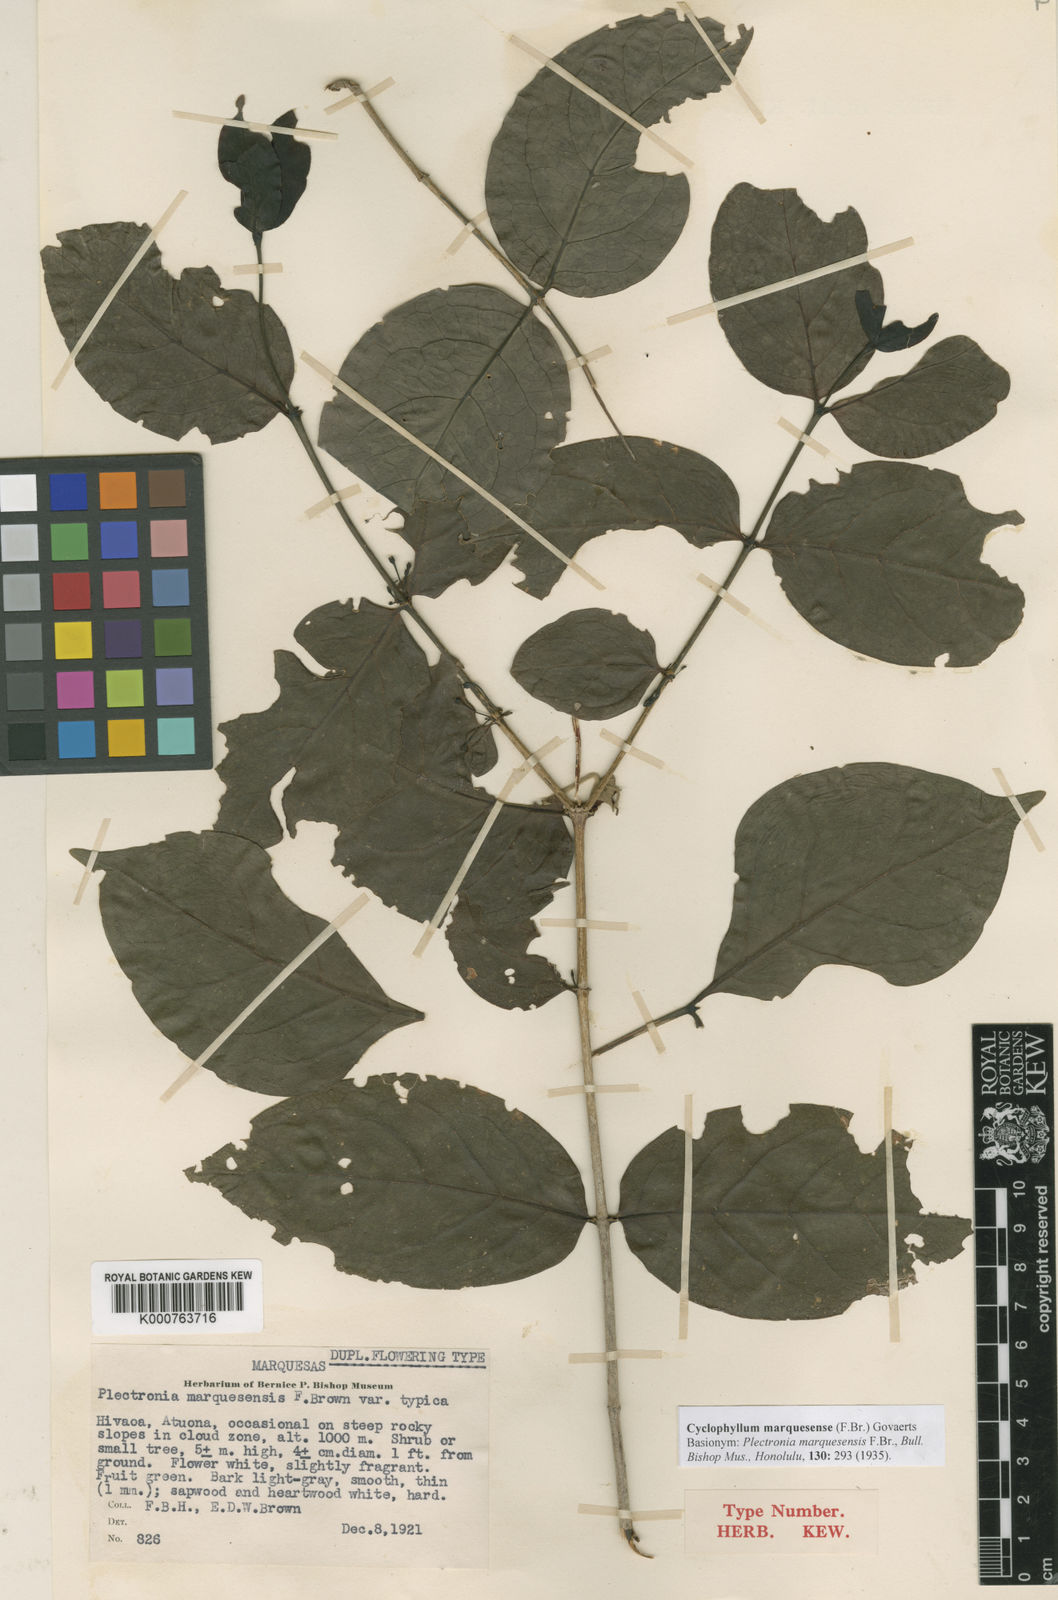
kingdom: Plantae
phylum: Tracheophyta
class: Magnoliopsida
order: Gentianales
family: Rubiaceae
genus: Cyclophyllum
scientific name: Cyclophyllum barbatum
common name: Cyclophyllum
